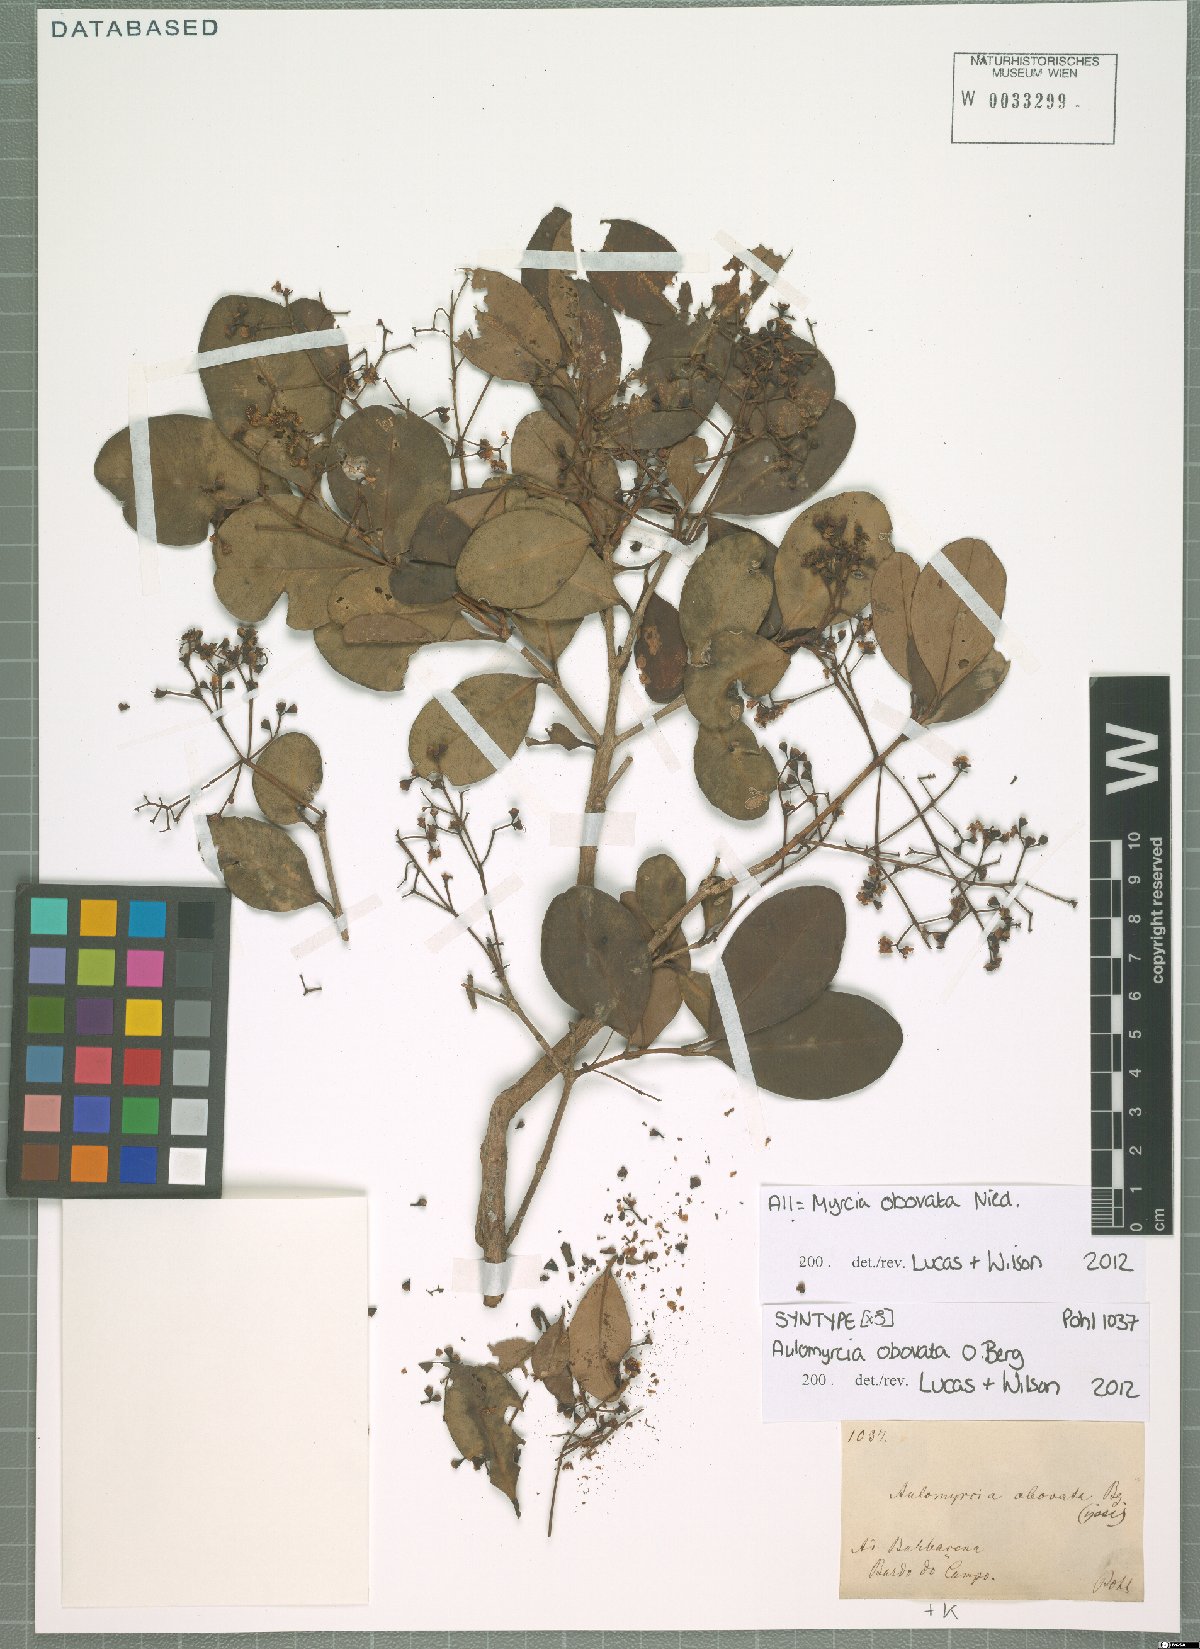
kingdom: Plantae
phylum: Tracheophyta
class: Magnoliopsida
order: Myrtales
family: Myrtaceae
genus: Myrcia
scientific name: Myrcia obovata
